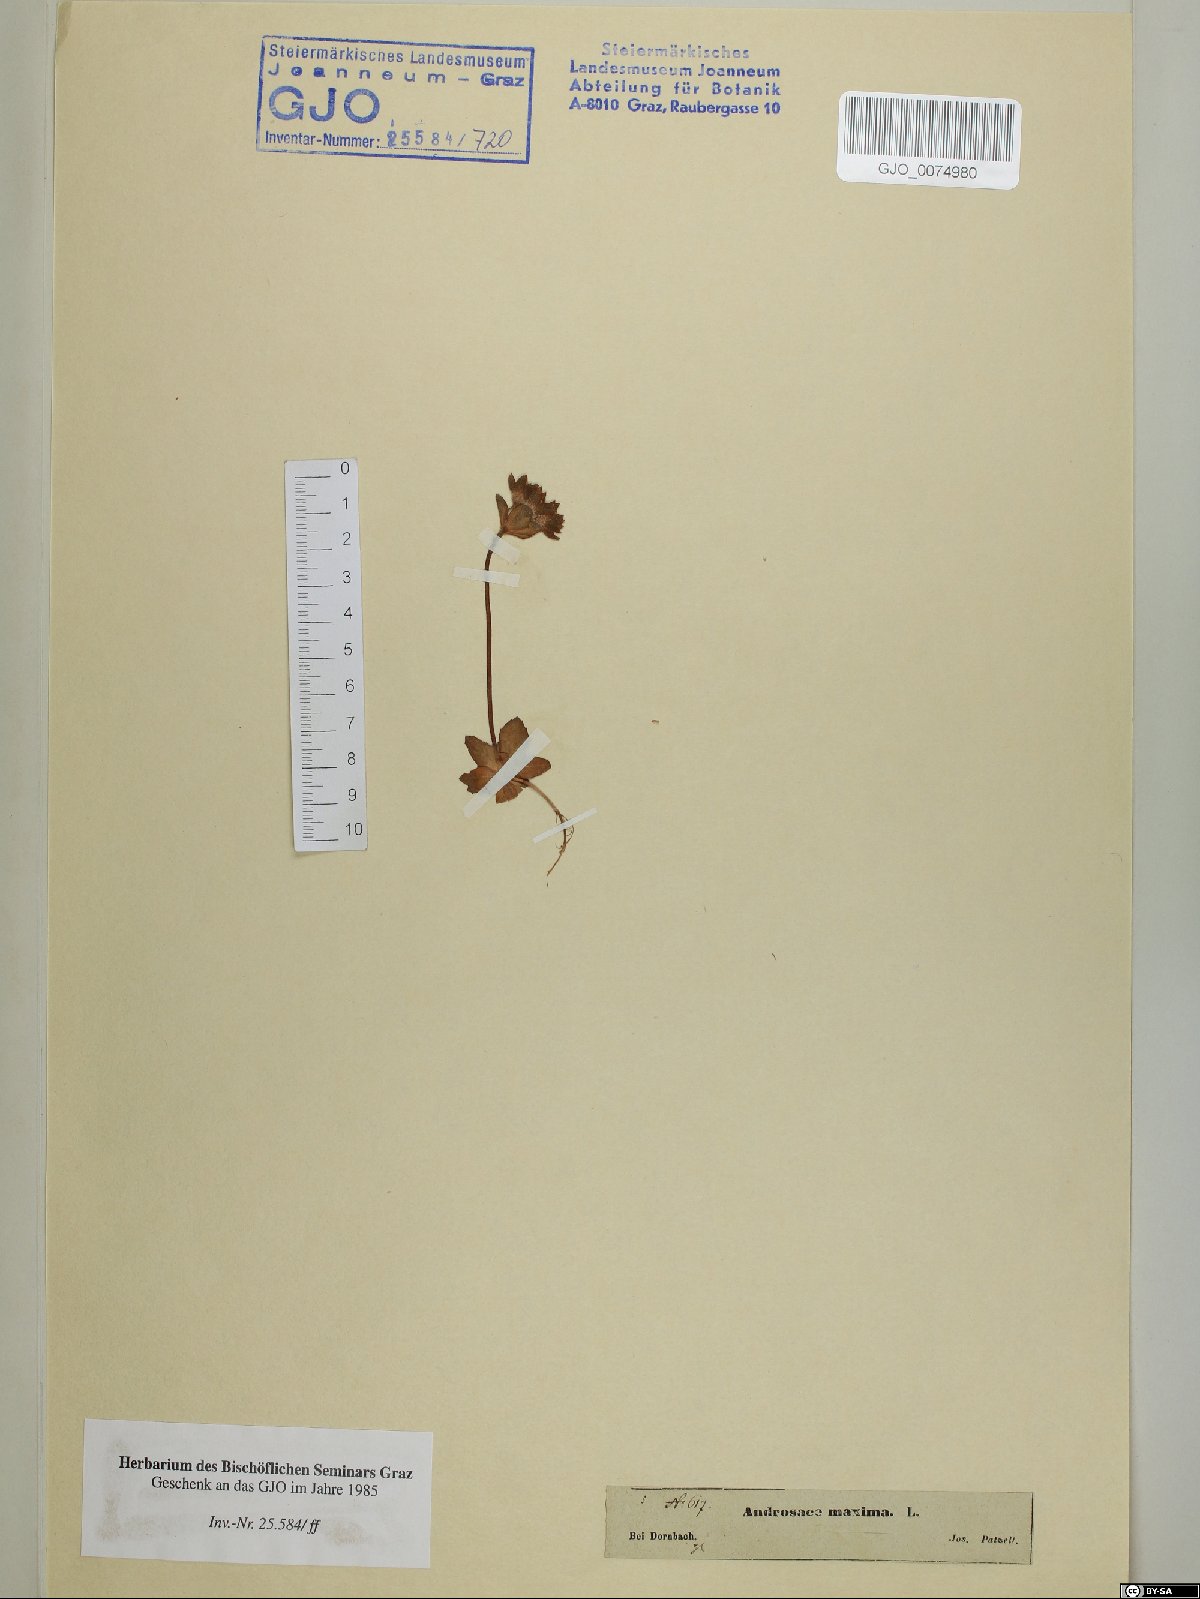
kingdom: Plantae
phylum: Tracheophyta
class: Magnoliopsida
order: Ericales
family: Primulaceae
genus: Androsace
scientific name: Androsace maxima
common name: Annual androsace
